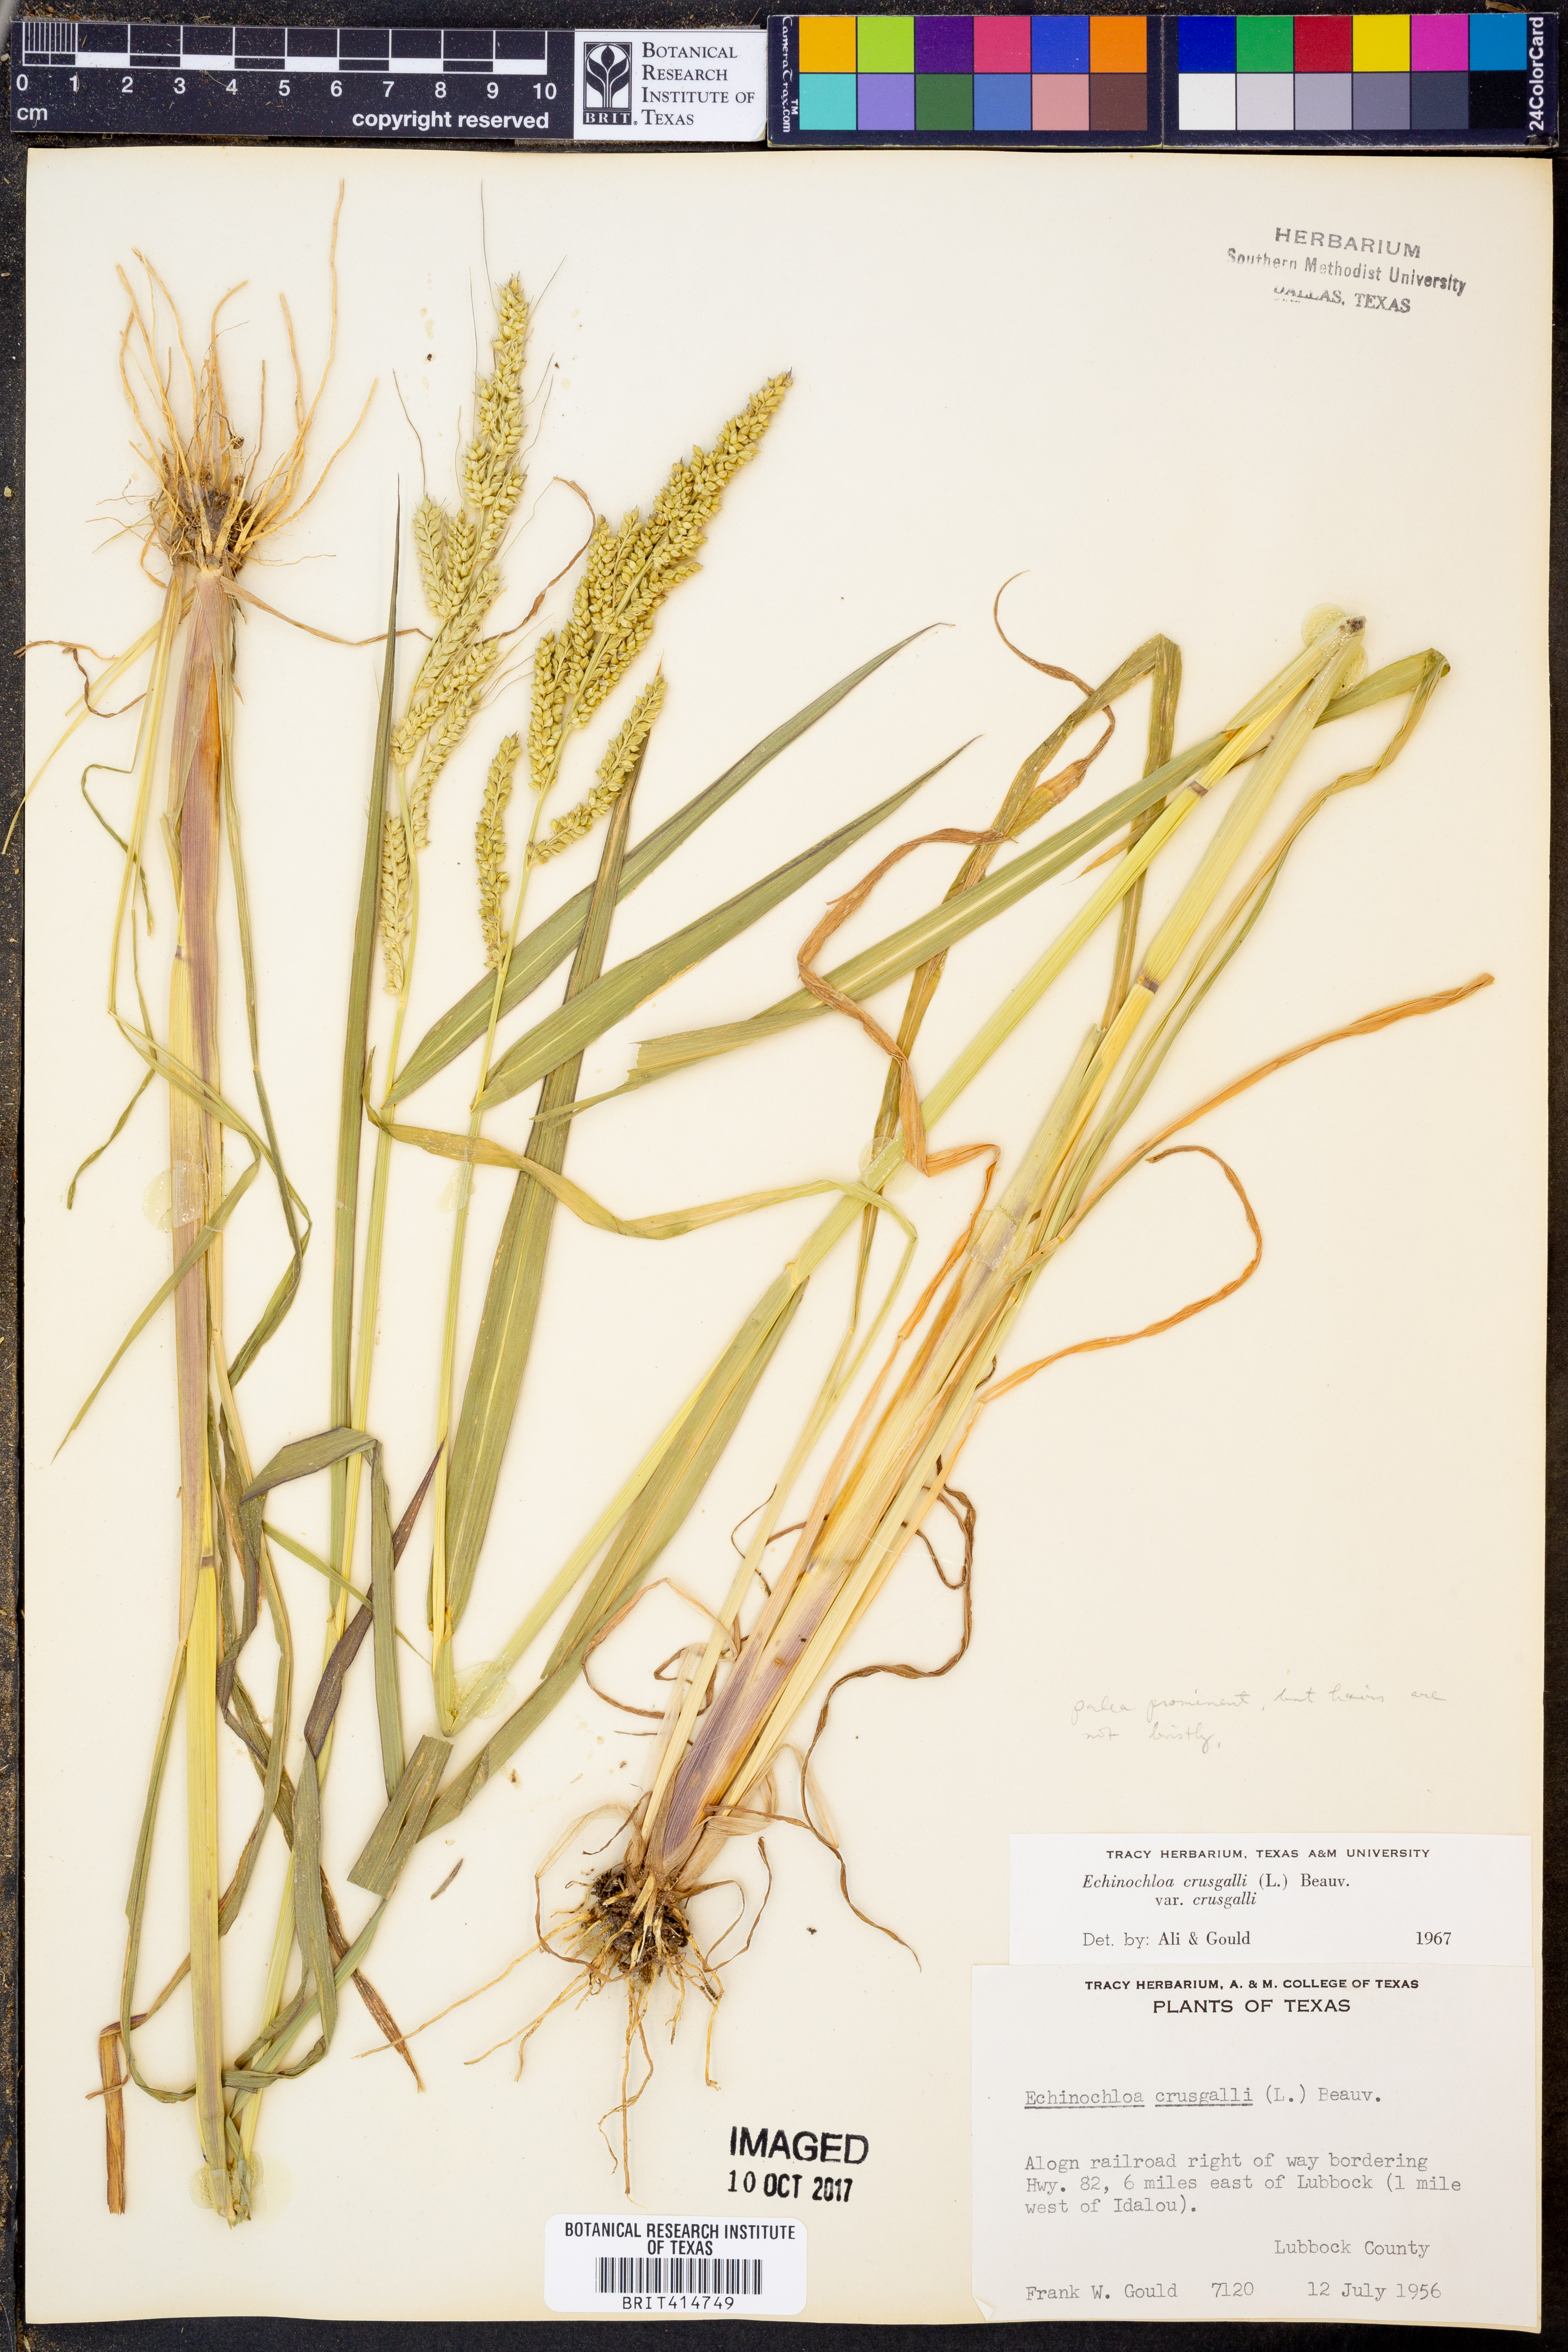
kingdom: Plantae
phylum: Tracheophyta
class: Liliopsida
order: Poales
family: Poaceae
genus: Echinochloa
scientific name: Echinochloa crus-galli
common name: Cockspur
